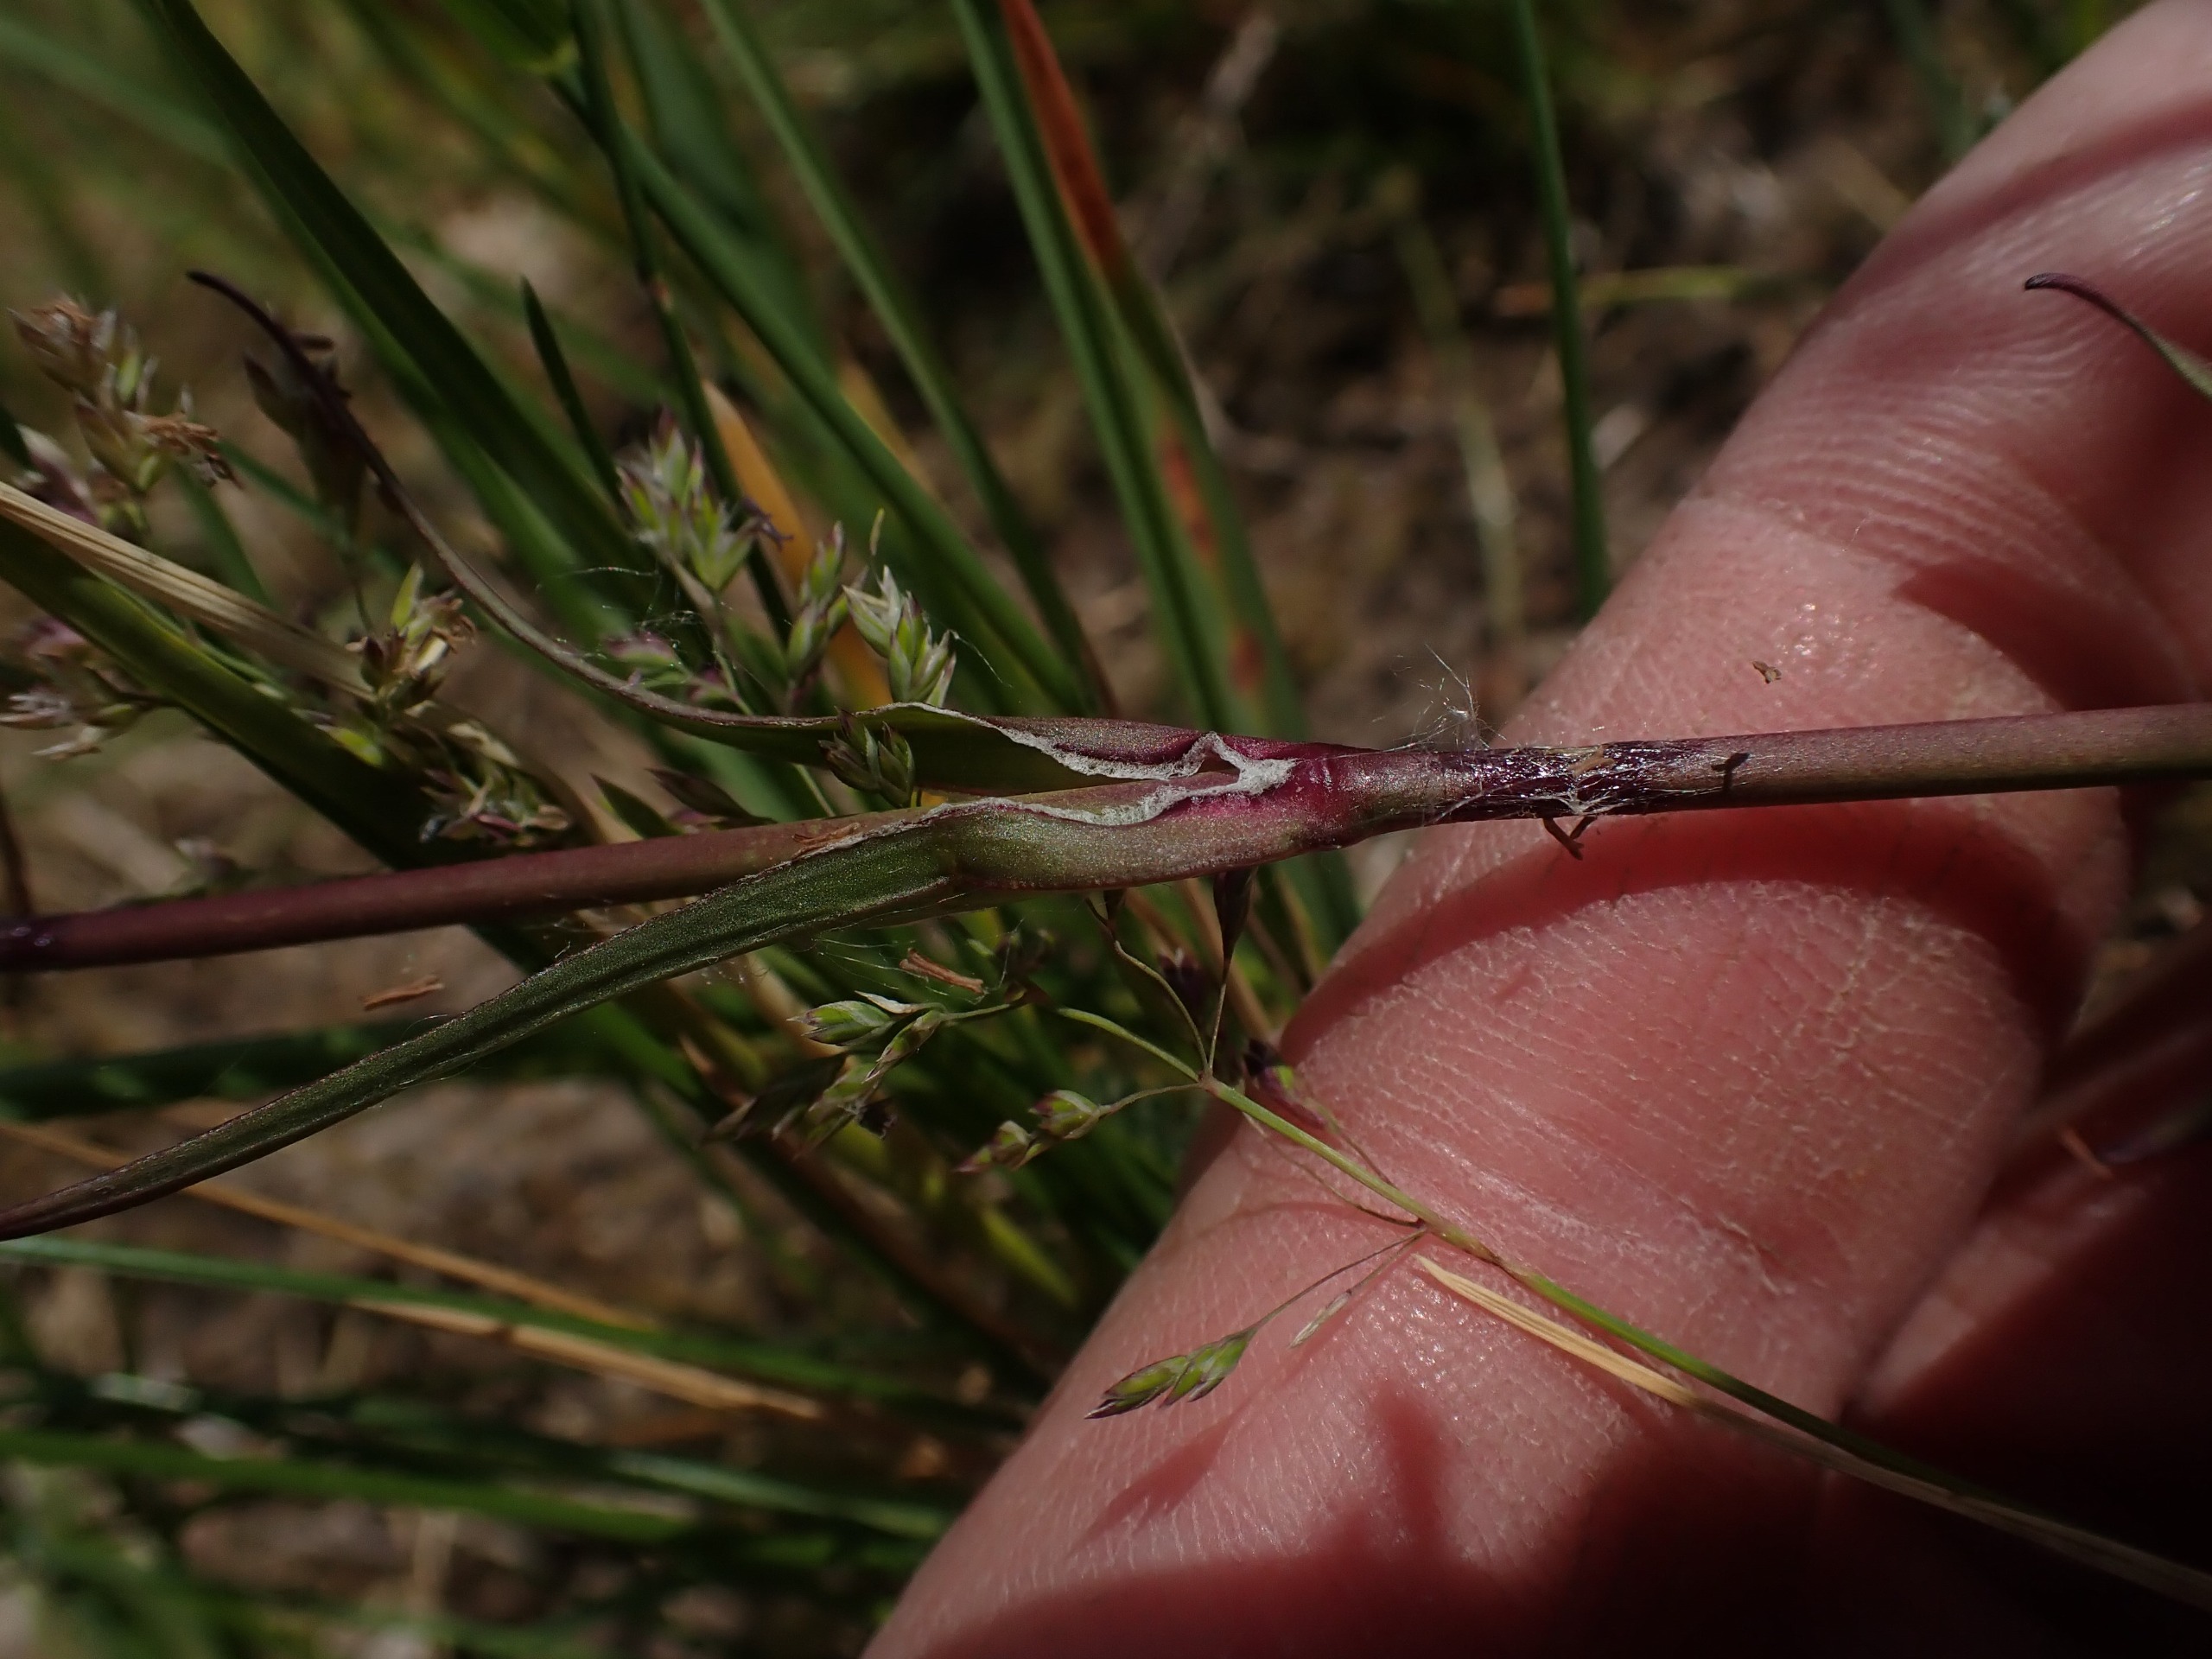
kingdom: Plantae
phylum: Tracheophyta
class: Magnoliopsida
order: Caryophyllales
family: Caryophyllaceae
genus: Viscaria
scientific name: Viscaria vulgaris
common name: Tjærenellike
